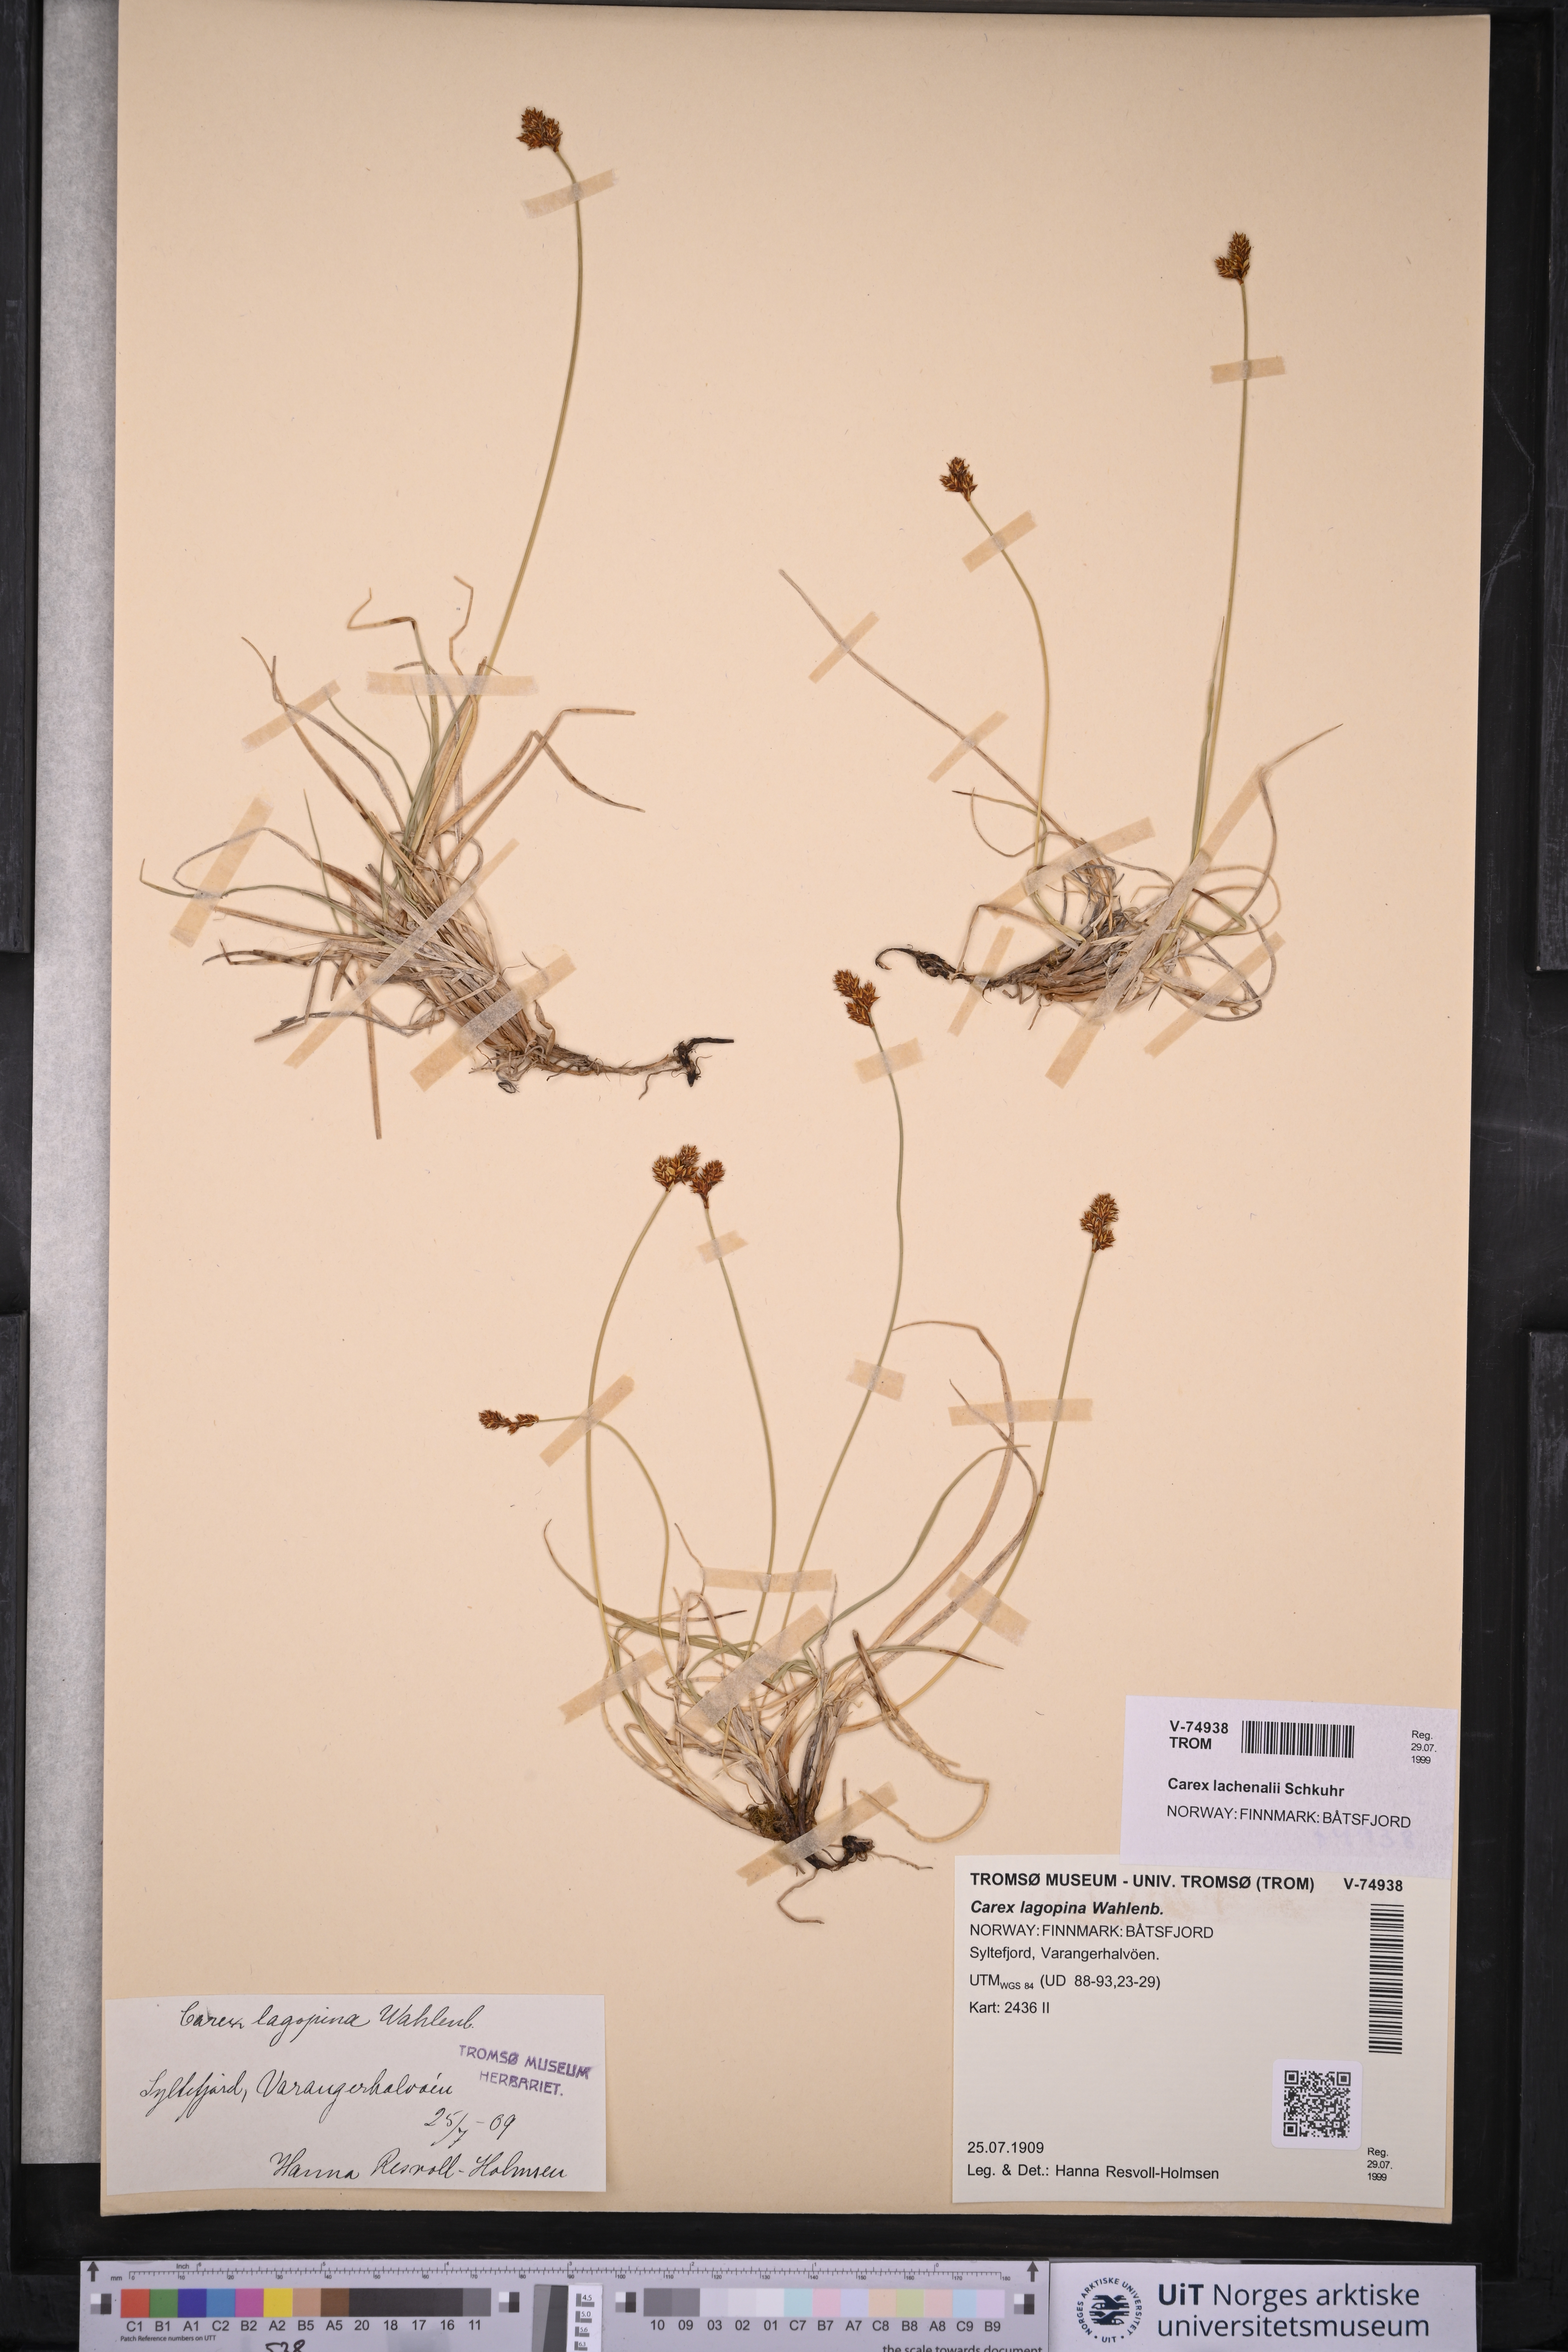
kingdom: Plantae
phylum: Tracheophyta
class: Liliopsida
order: Poales
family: Cyperaceae
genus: Carex
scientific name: Carex lachenalii
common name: Hare's-foot sedge
